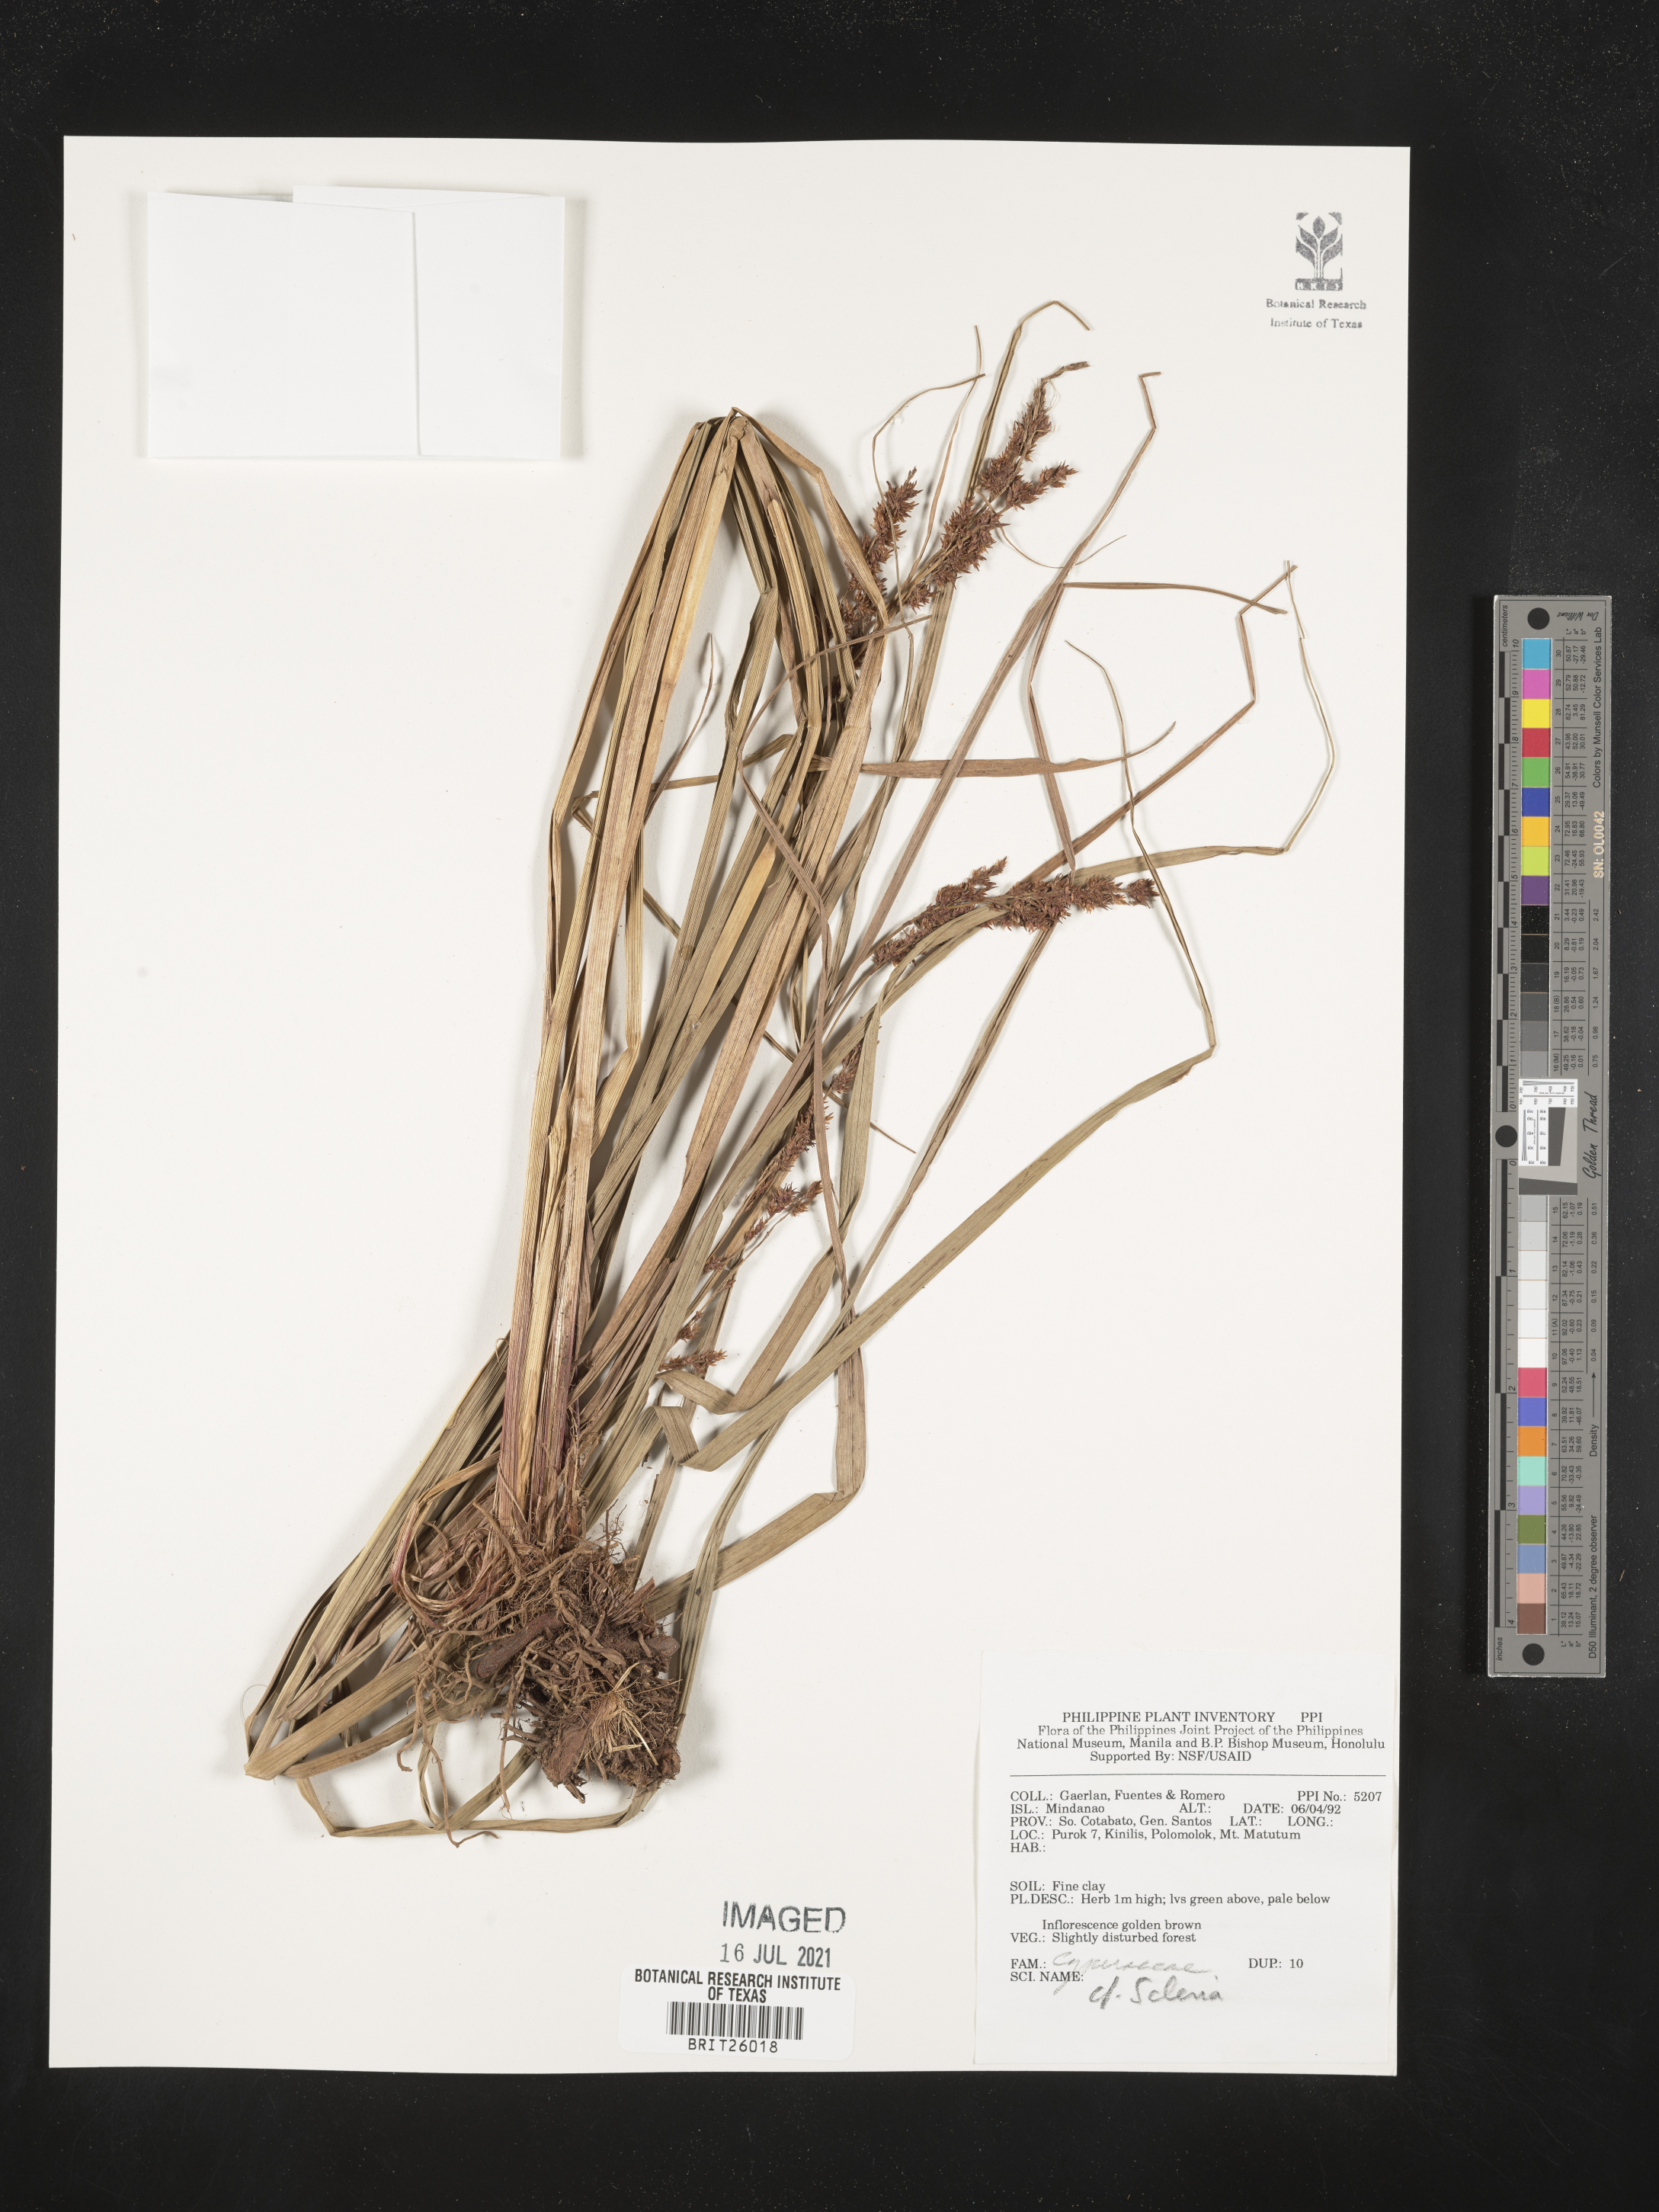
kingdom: Plantae
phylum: Tracheophyta
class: Liliopsida
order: Poales
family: Cyperaceae
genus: Scleria
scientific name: Scleria
